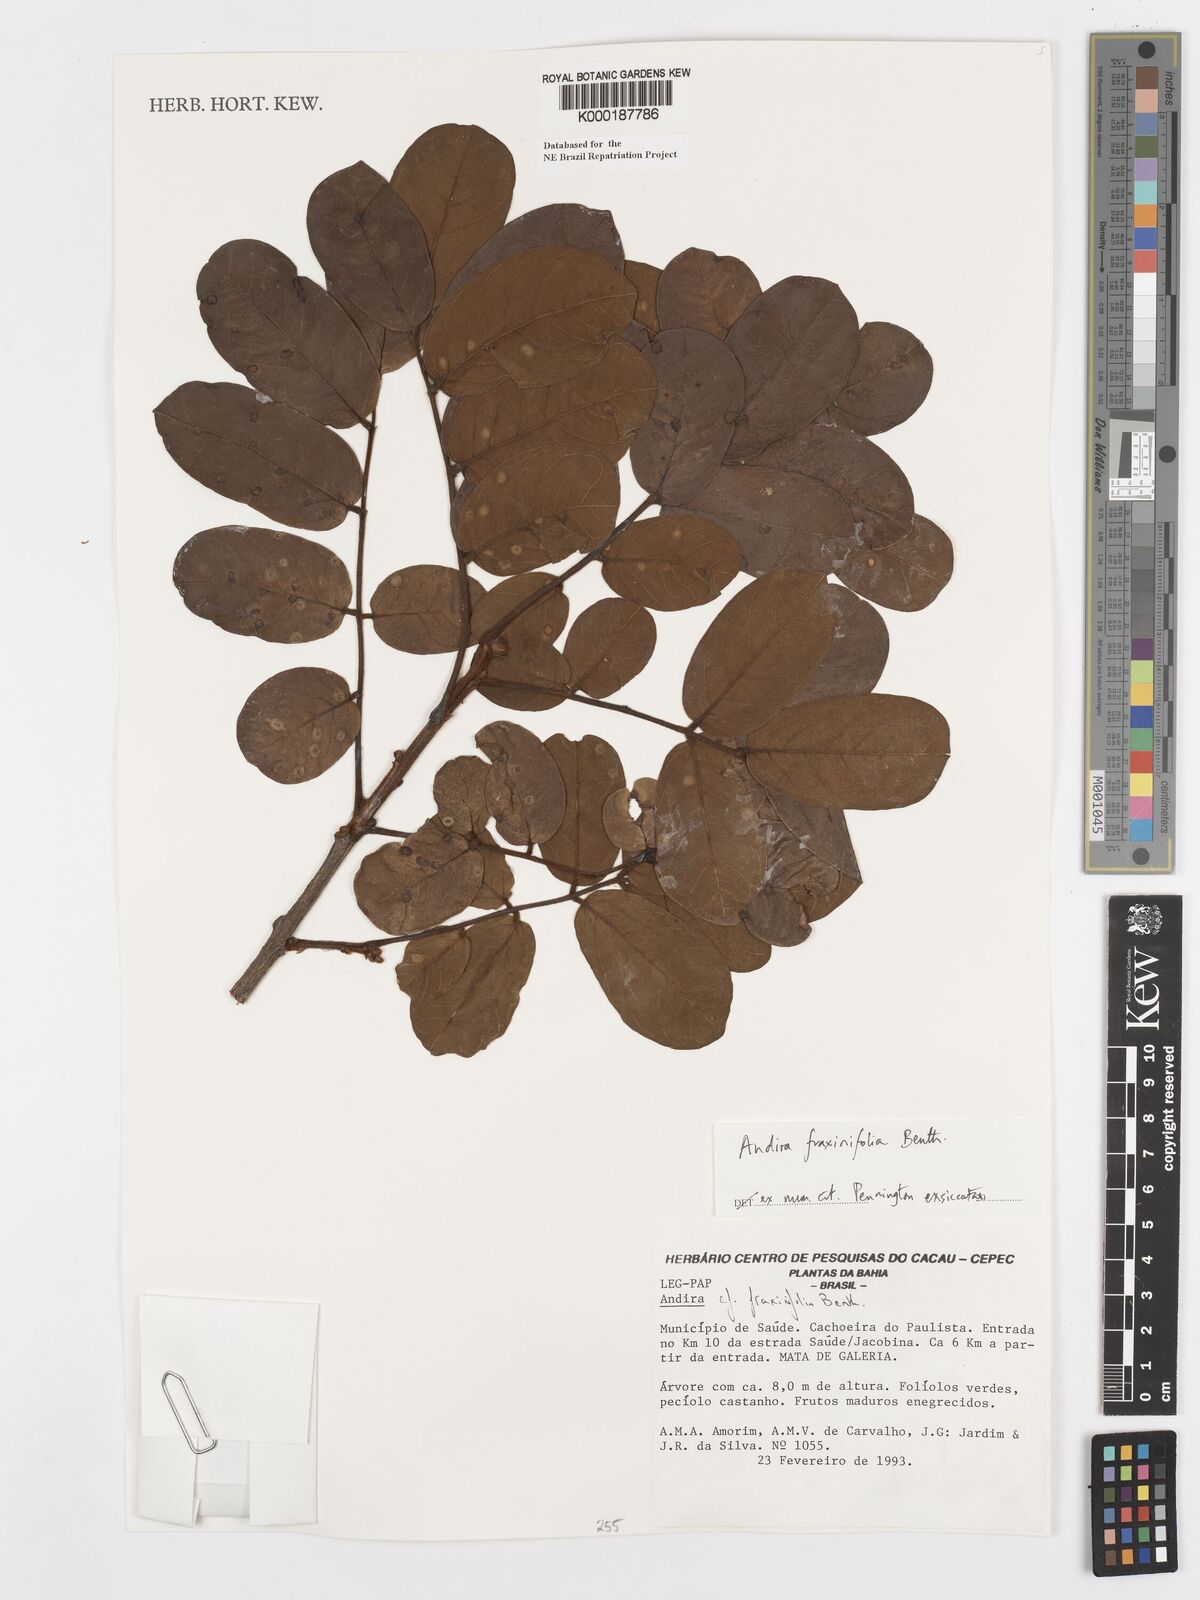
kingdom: Plantae
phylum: Tracheophyta
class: Magnoliopsida
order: Fabales
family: Fabaceae
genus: Andira
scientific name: Andira fraxinifolia
